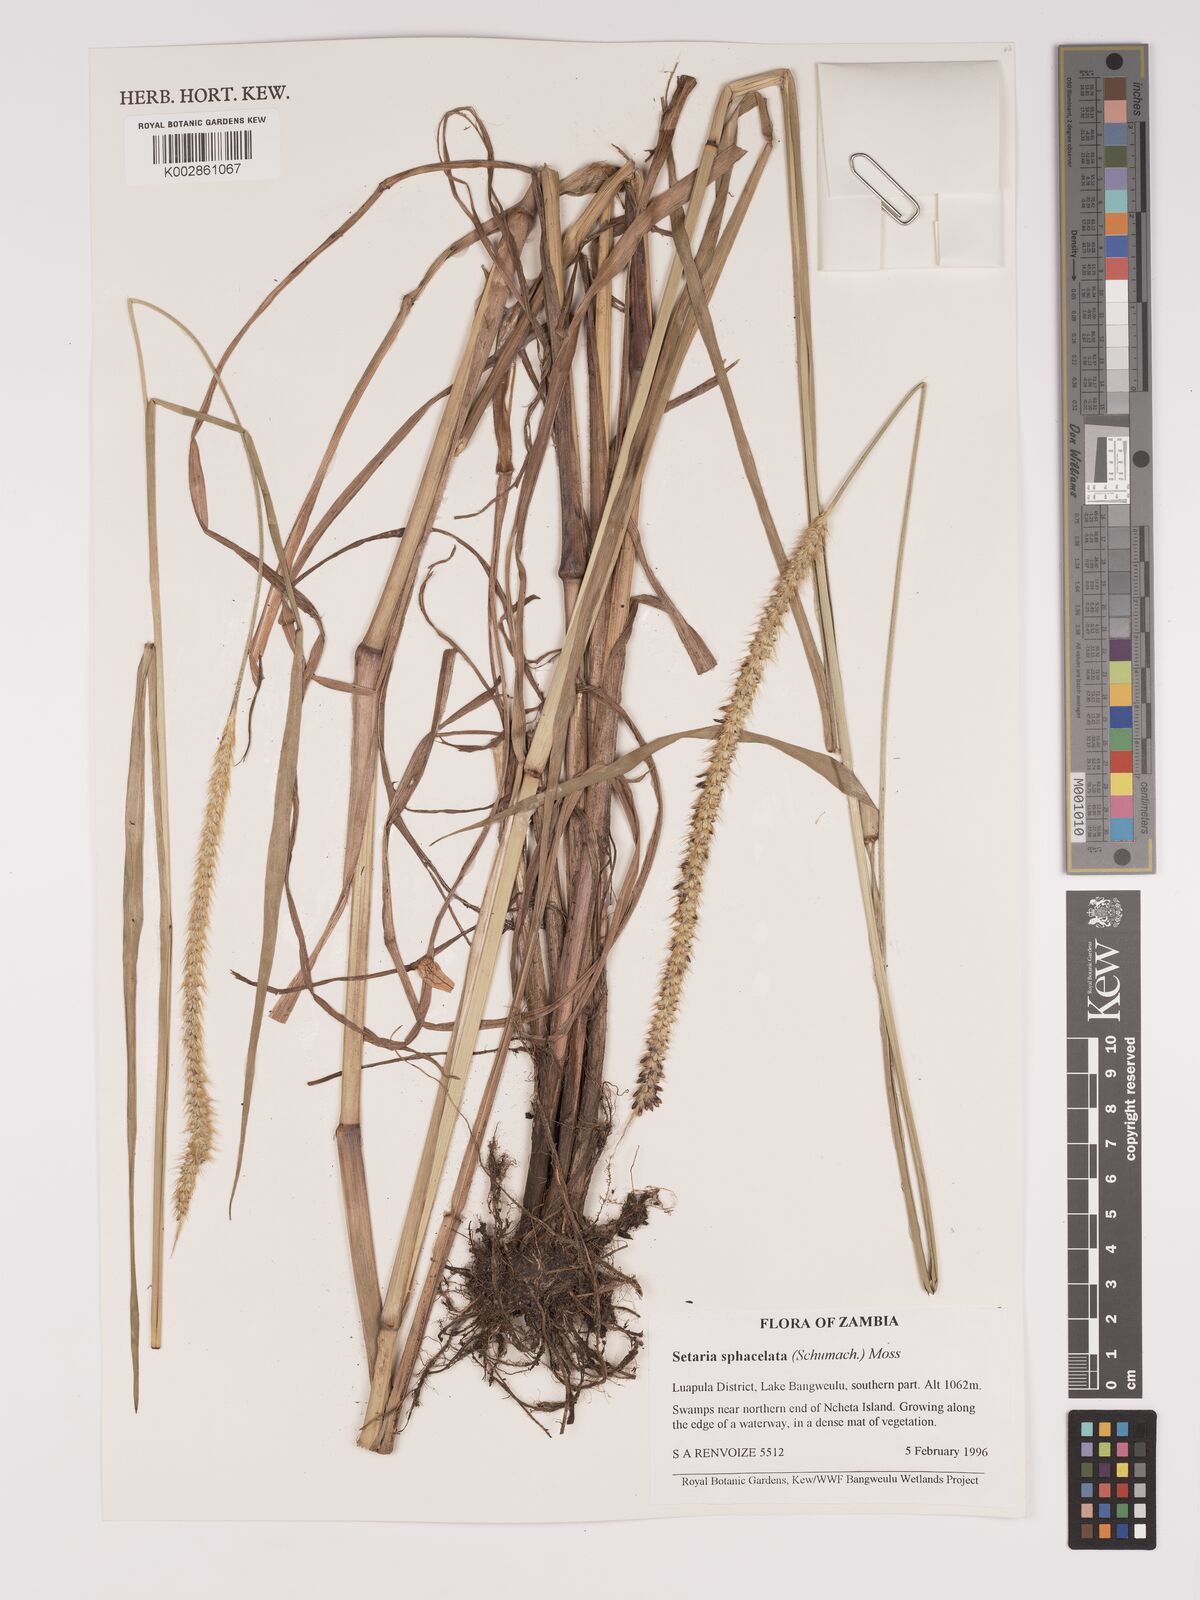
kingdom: Plantae
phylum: Tracheophyta
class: Liliopsida
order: Poales
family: Poaceae
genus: Setaria
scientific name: Setaria sphacelata
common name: African bristlegrass
